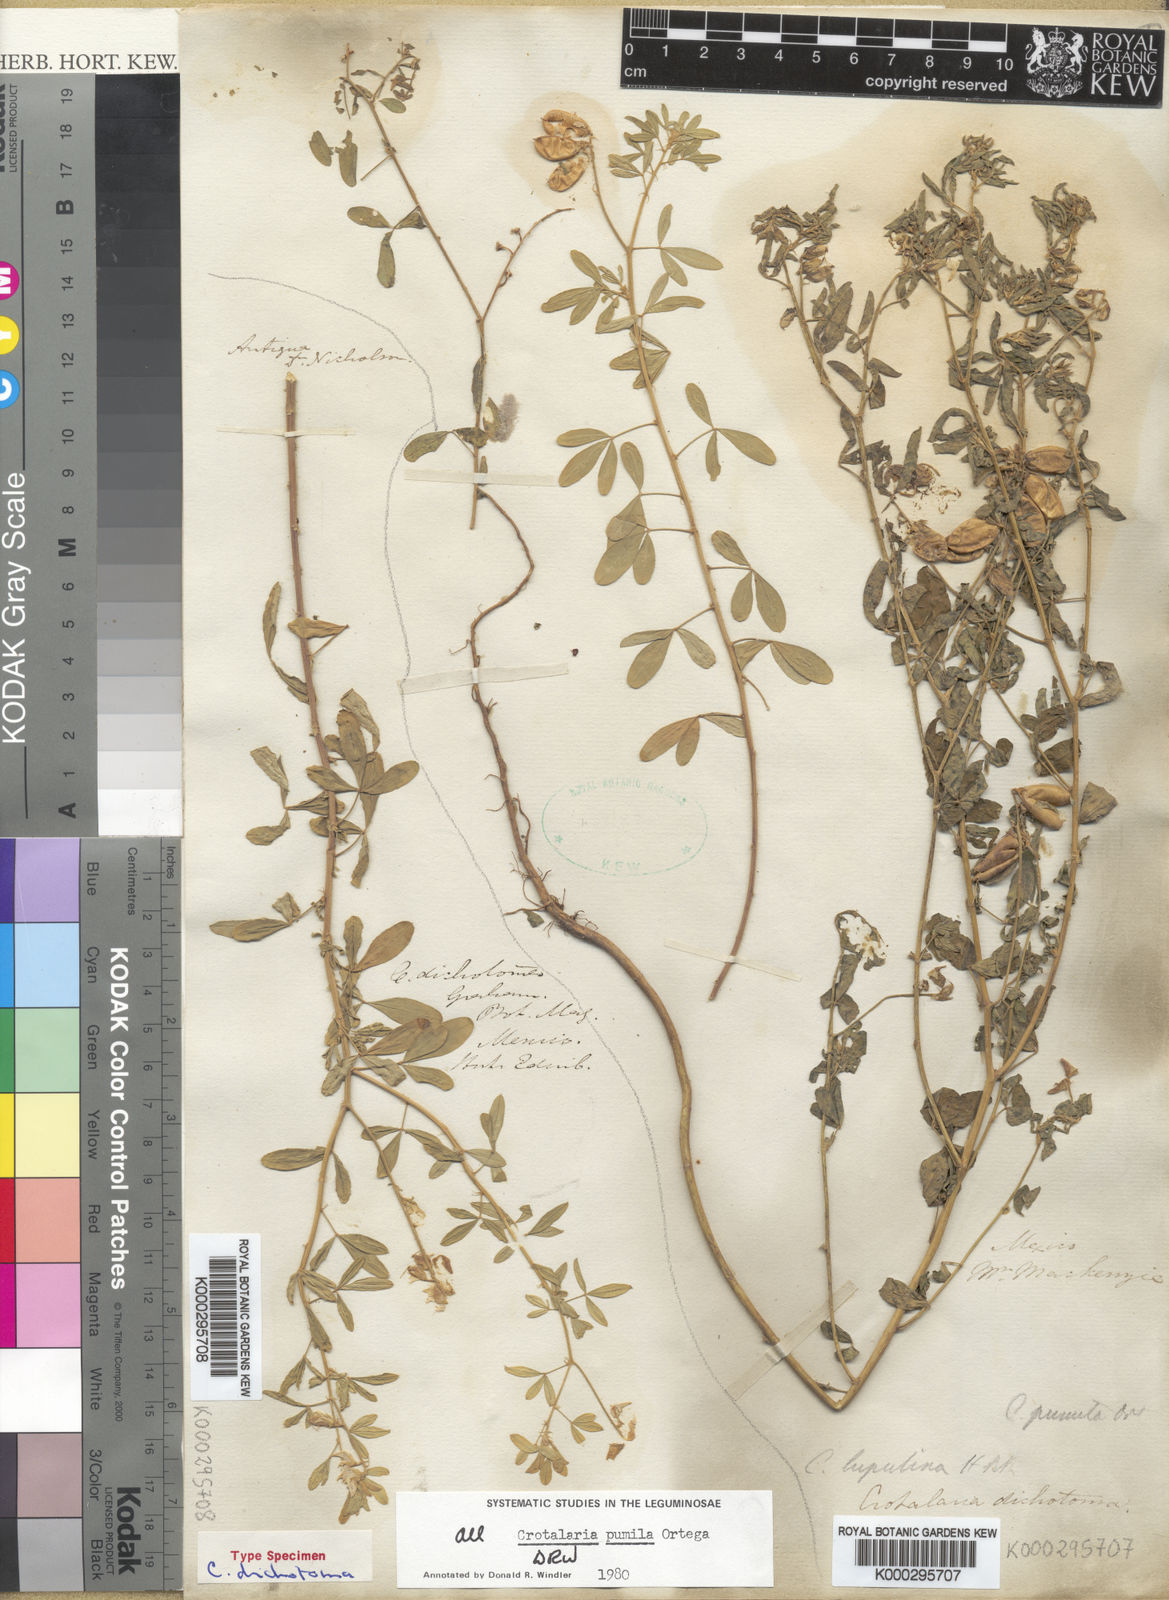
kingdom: Plantae
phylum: Tracheophyta
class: Magnoliopsida
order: Fabales
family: Fabaceae
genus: Crotalaria
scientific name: Crotalaria pumila
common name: Low rattlebox
